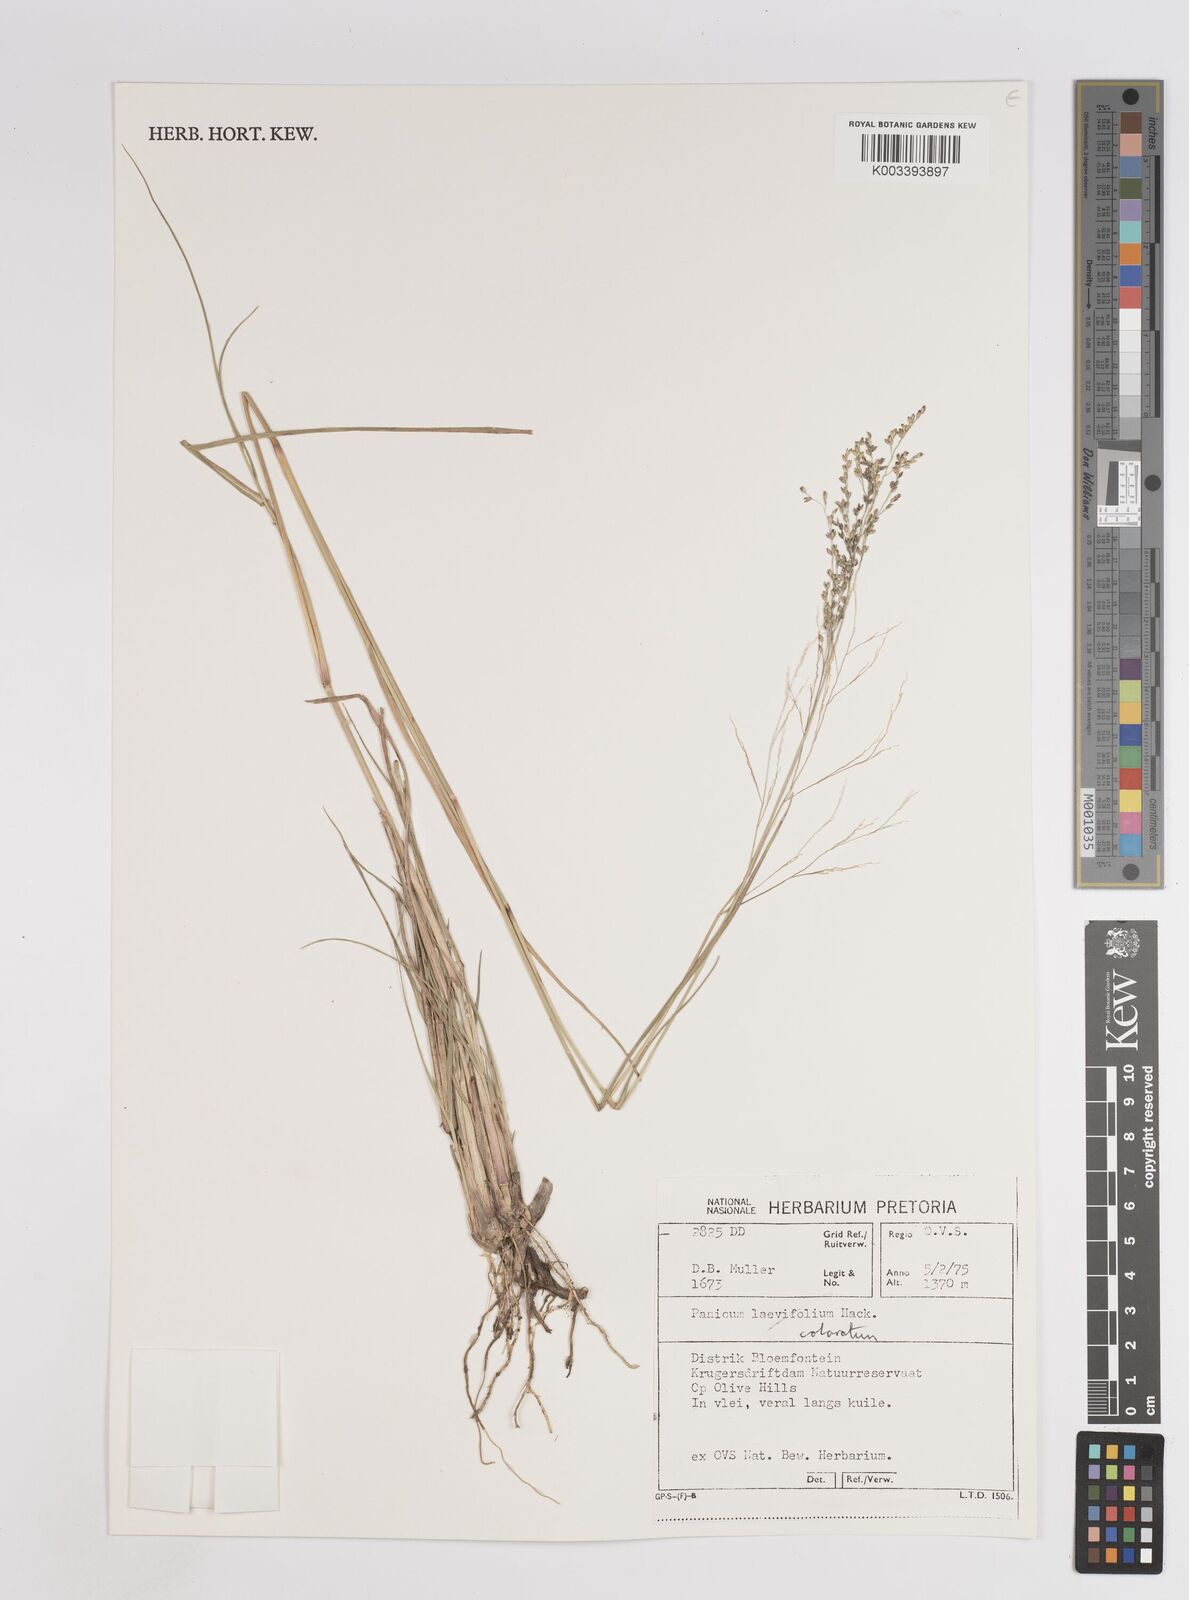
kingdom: Plantae
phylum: Tracheophyta
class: Liliopsida
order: Poales
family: Poaceae
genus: Panicum
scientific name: Panicum stapfianum
